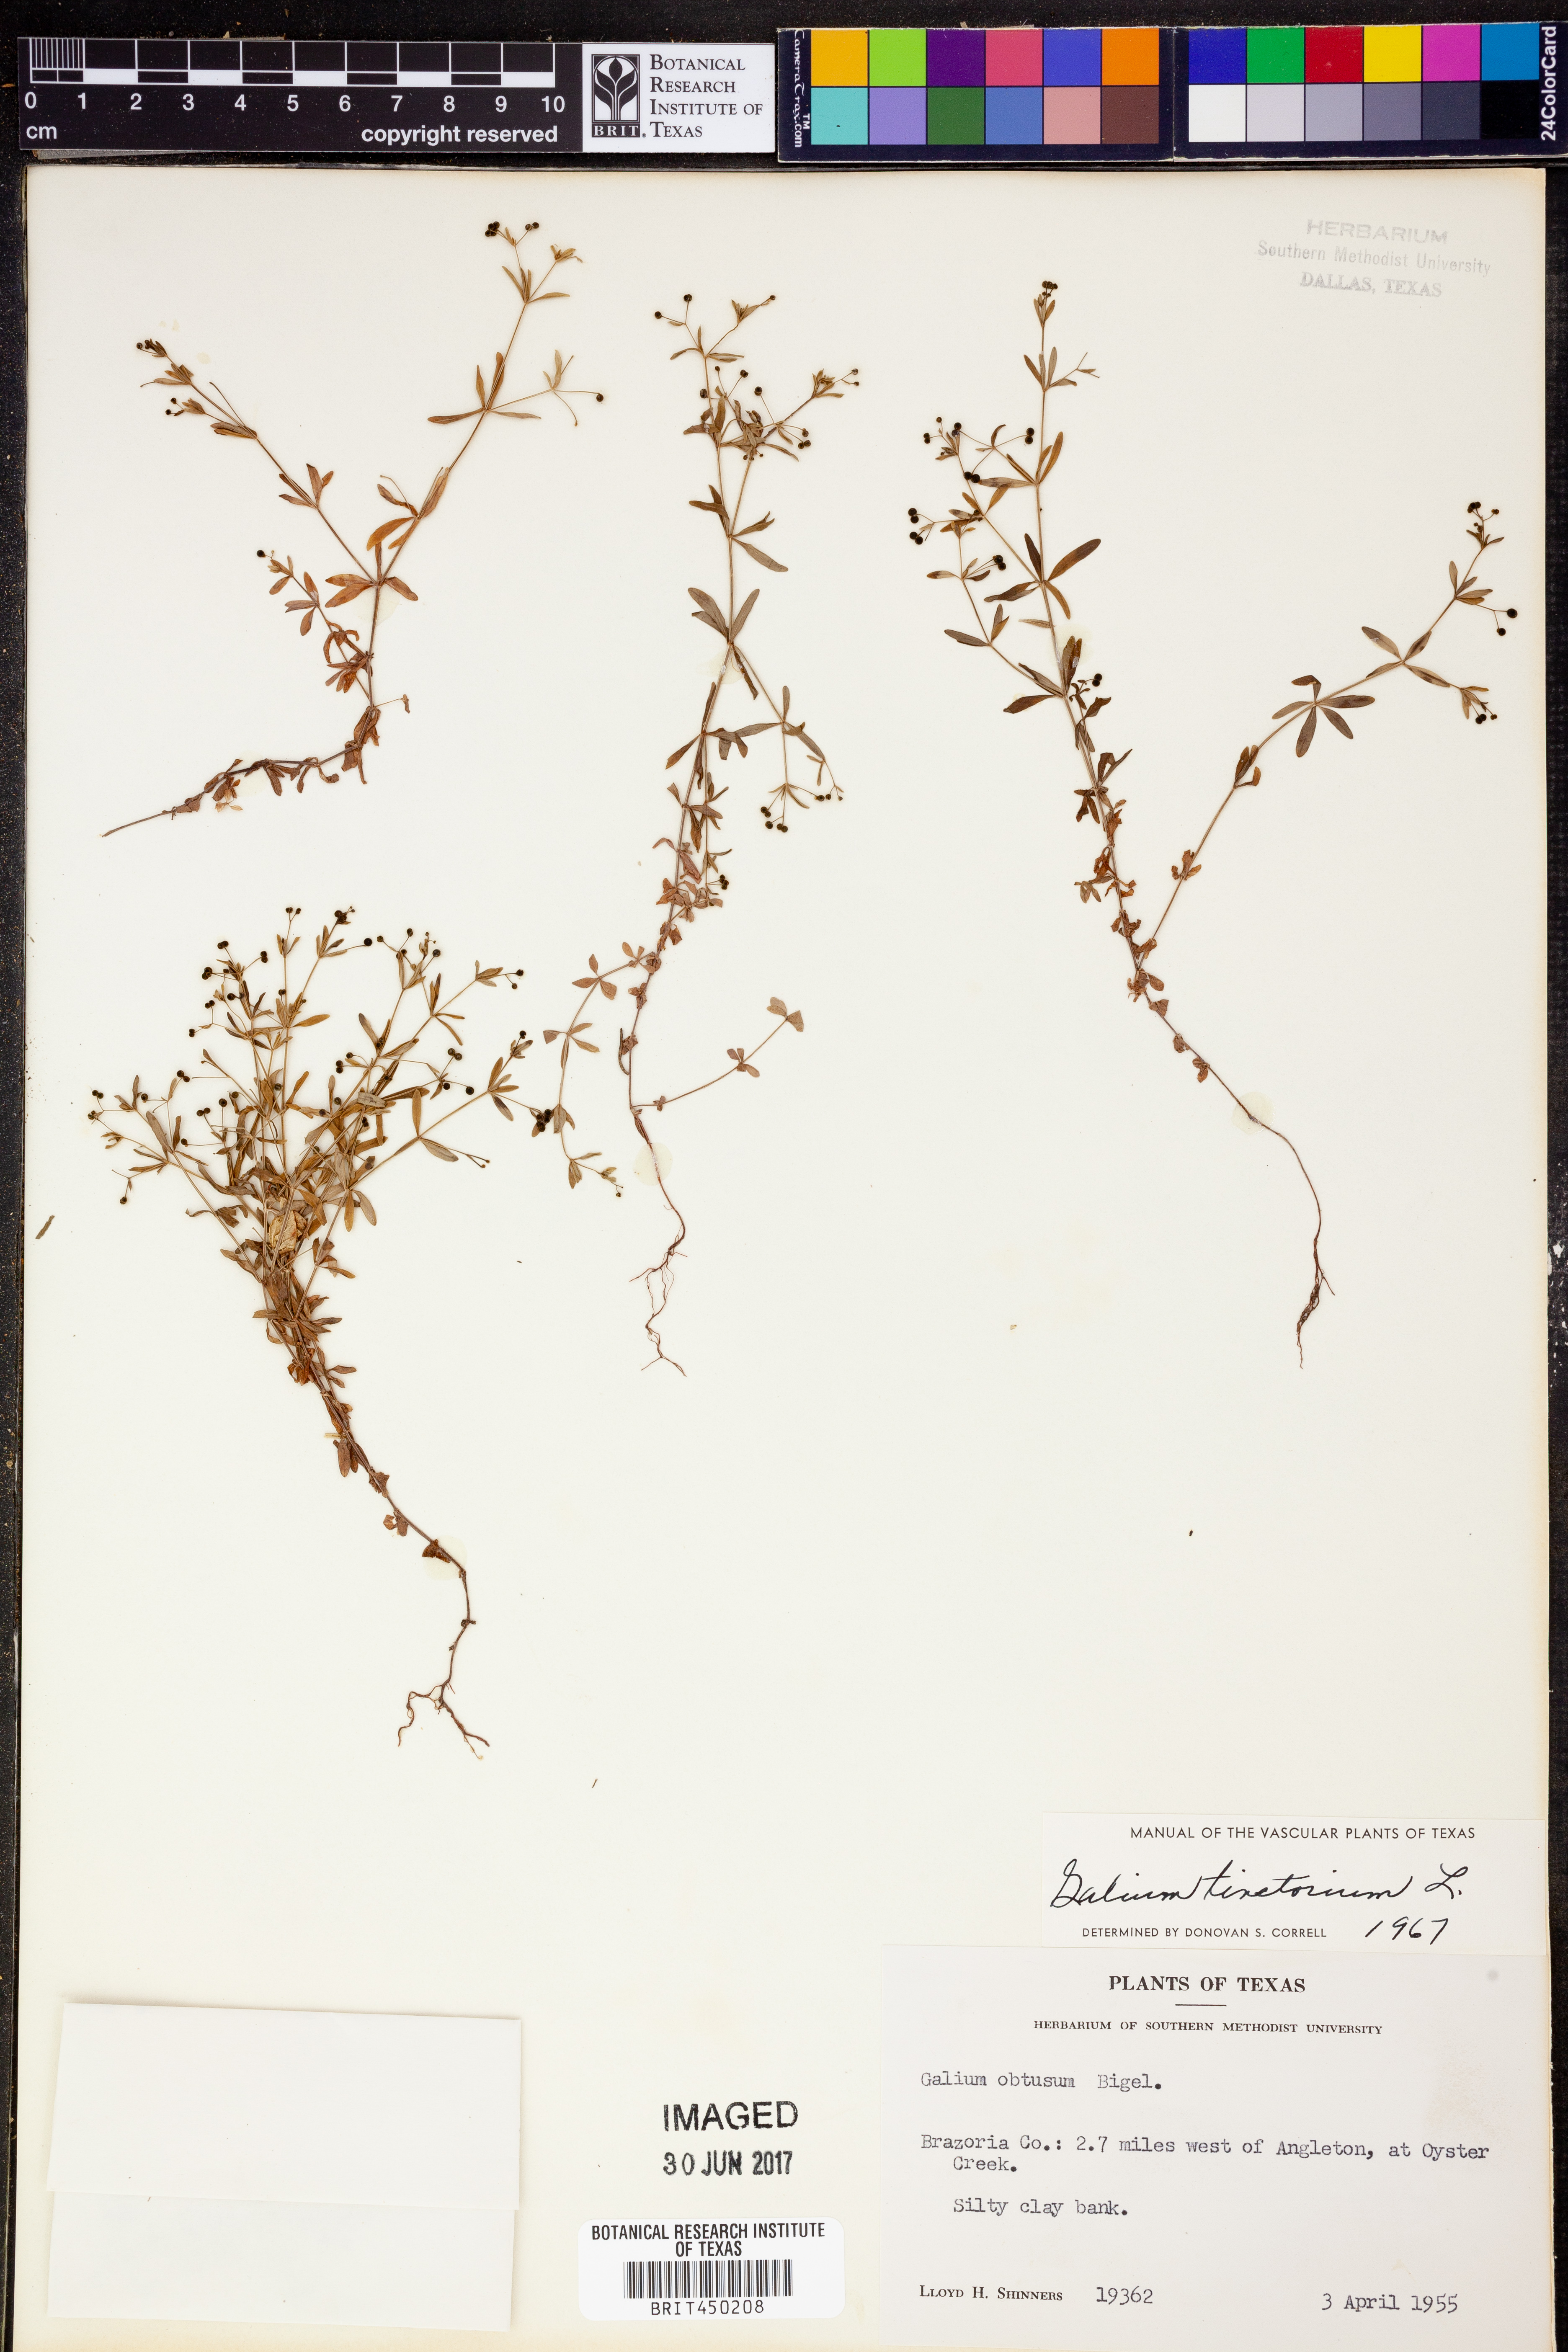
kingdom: Plantae
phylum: Tracheophyta
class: Magnoliopsida
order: Gentianales
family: Rubiaceae
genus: Asperula
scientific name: Asperula tinctoria
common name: Dyer's woodruff
